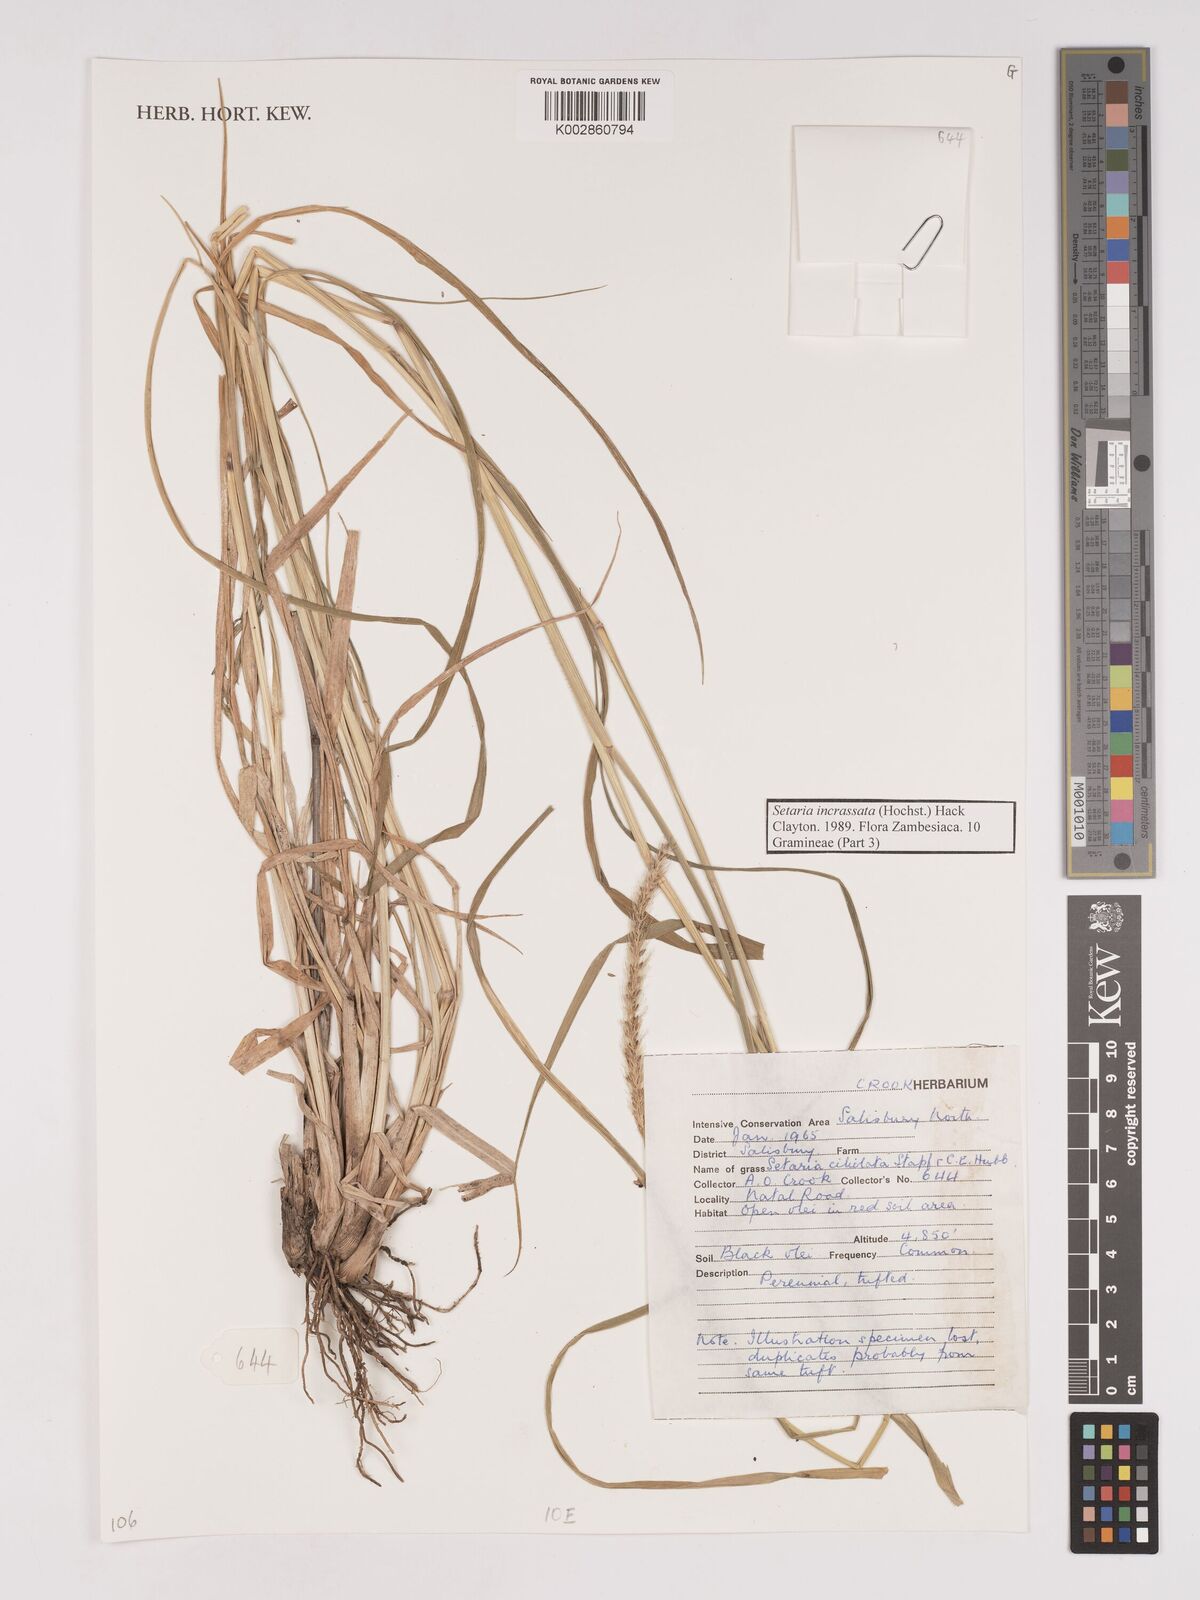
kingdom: Plantae
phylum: Tracheophyta
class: Liliopsida
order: Poales
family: Poaceae
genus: Setaria
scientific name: Setaria incrassata
